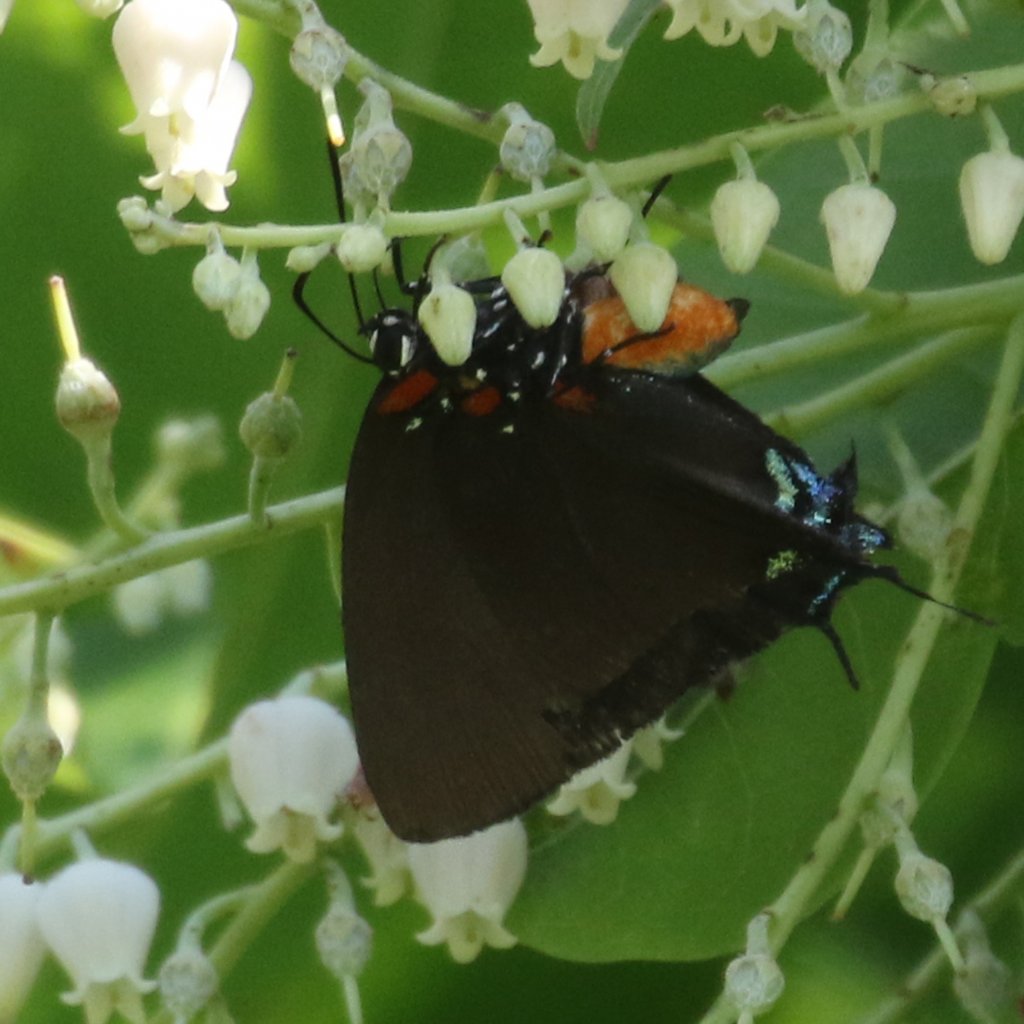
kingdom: Animalia
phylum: Arthropoda
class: Insecta
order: Lepidoptera
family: Lycaenidae
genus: Atlides
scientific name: Atlides halesus
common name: Great Purple Hairstreak
